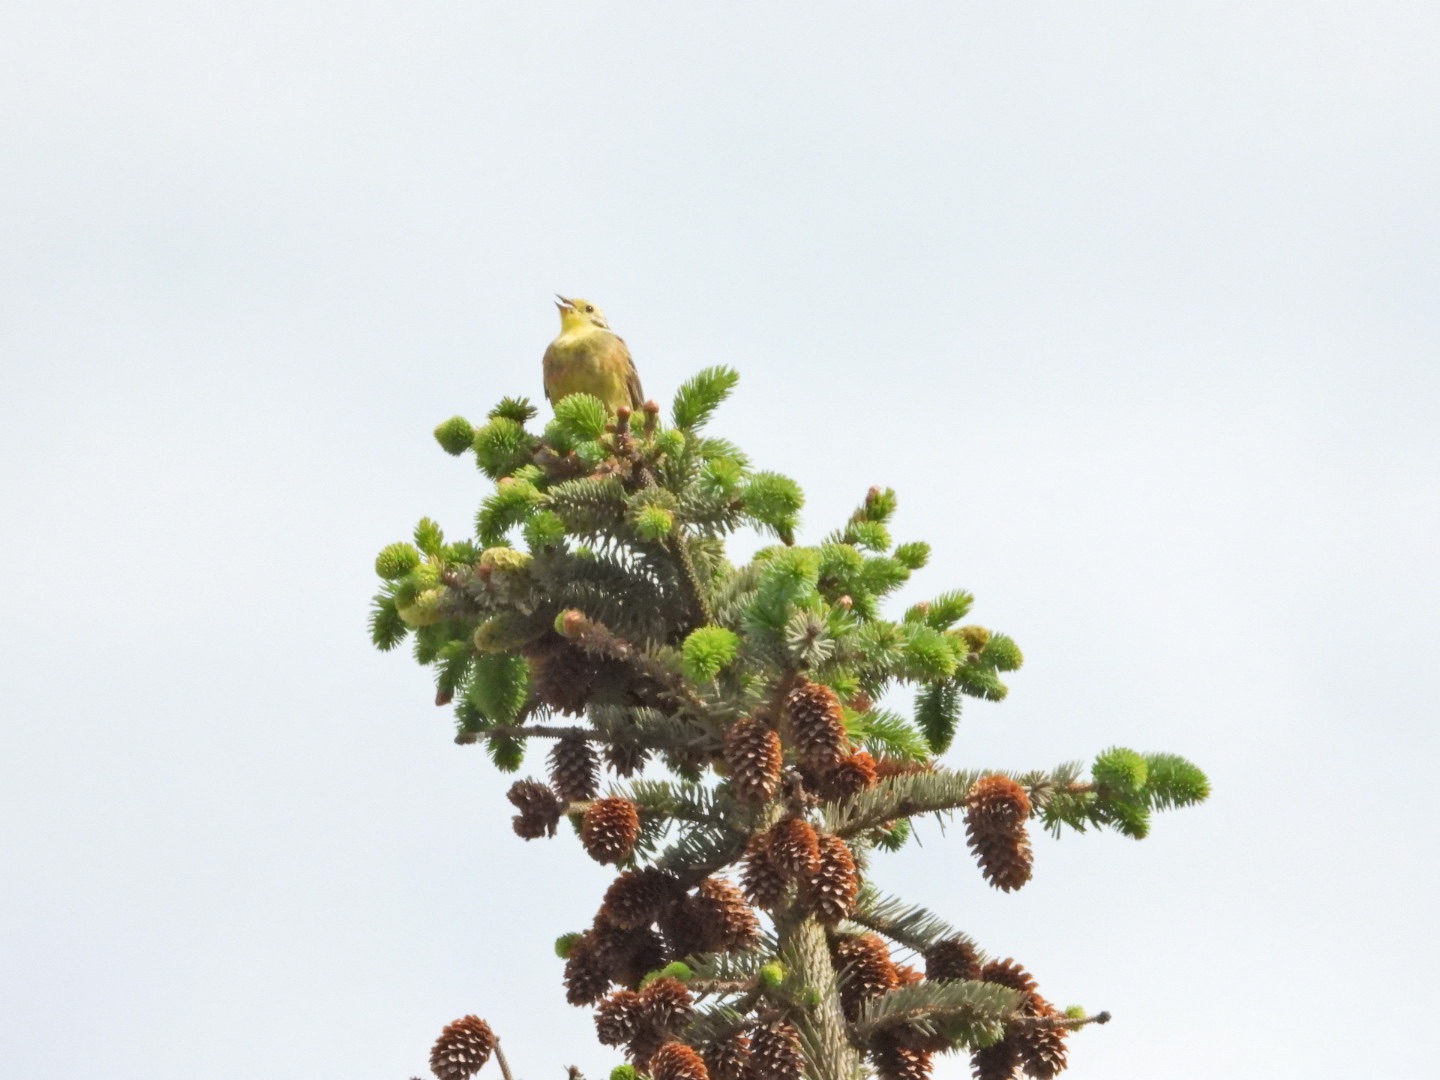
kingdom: Animalia
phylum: Chordata
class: Aves
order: Passeriformes
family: Emberizidae
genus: Emberiza
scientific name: Emberiza citrinella
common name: Gulspurv
